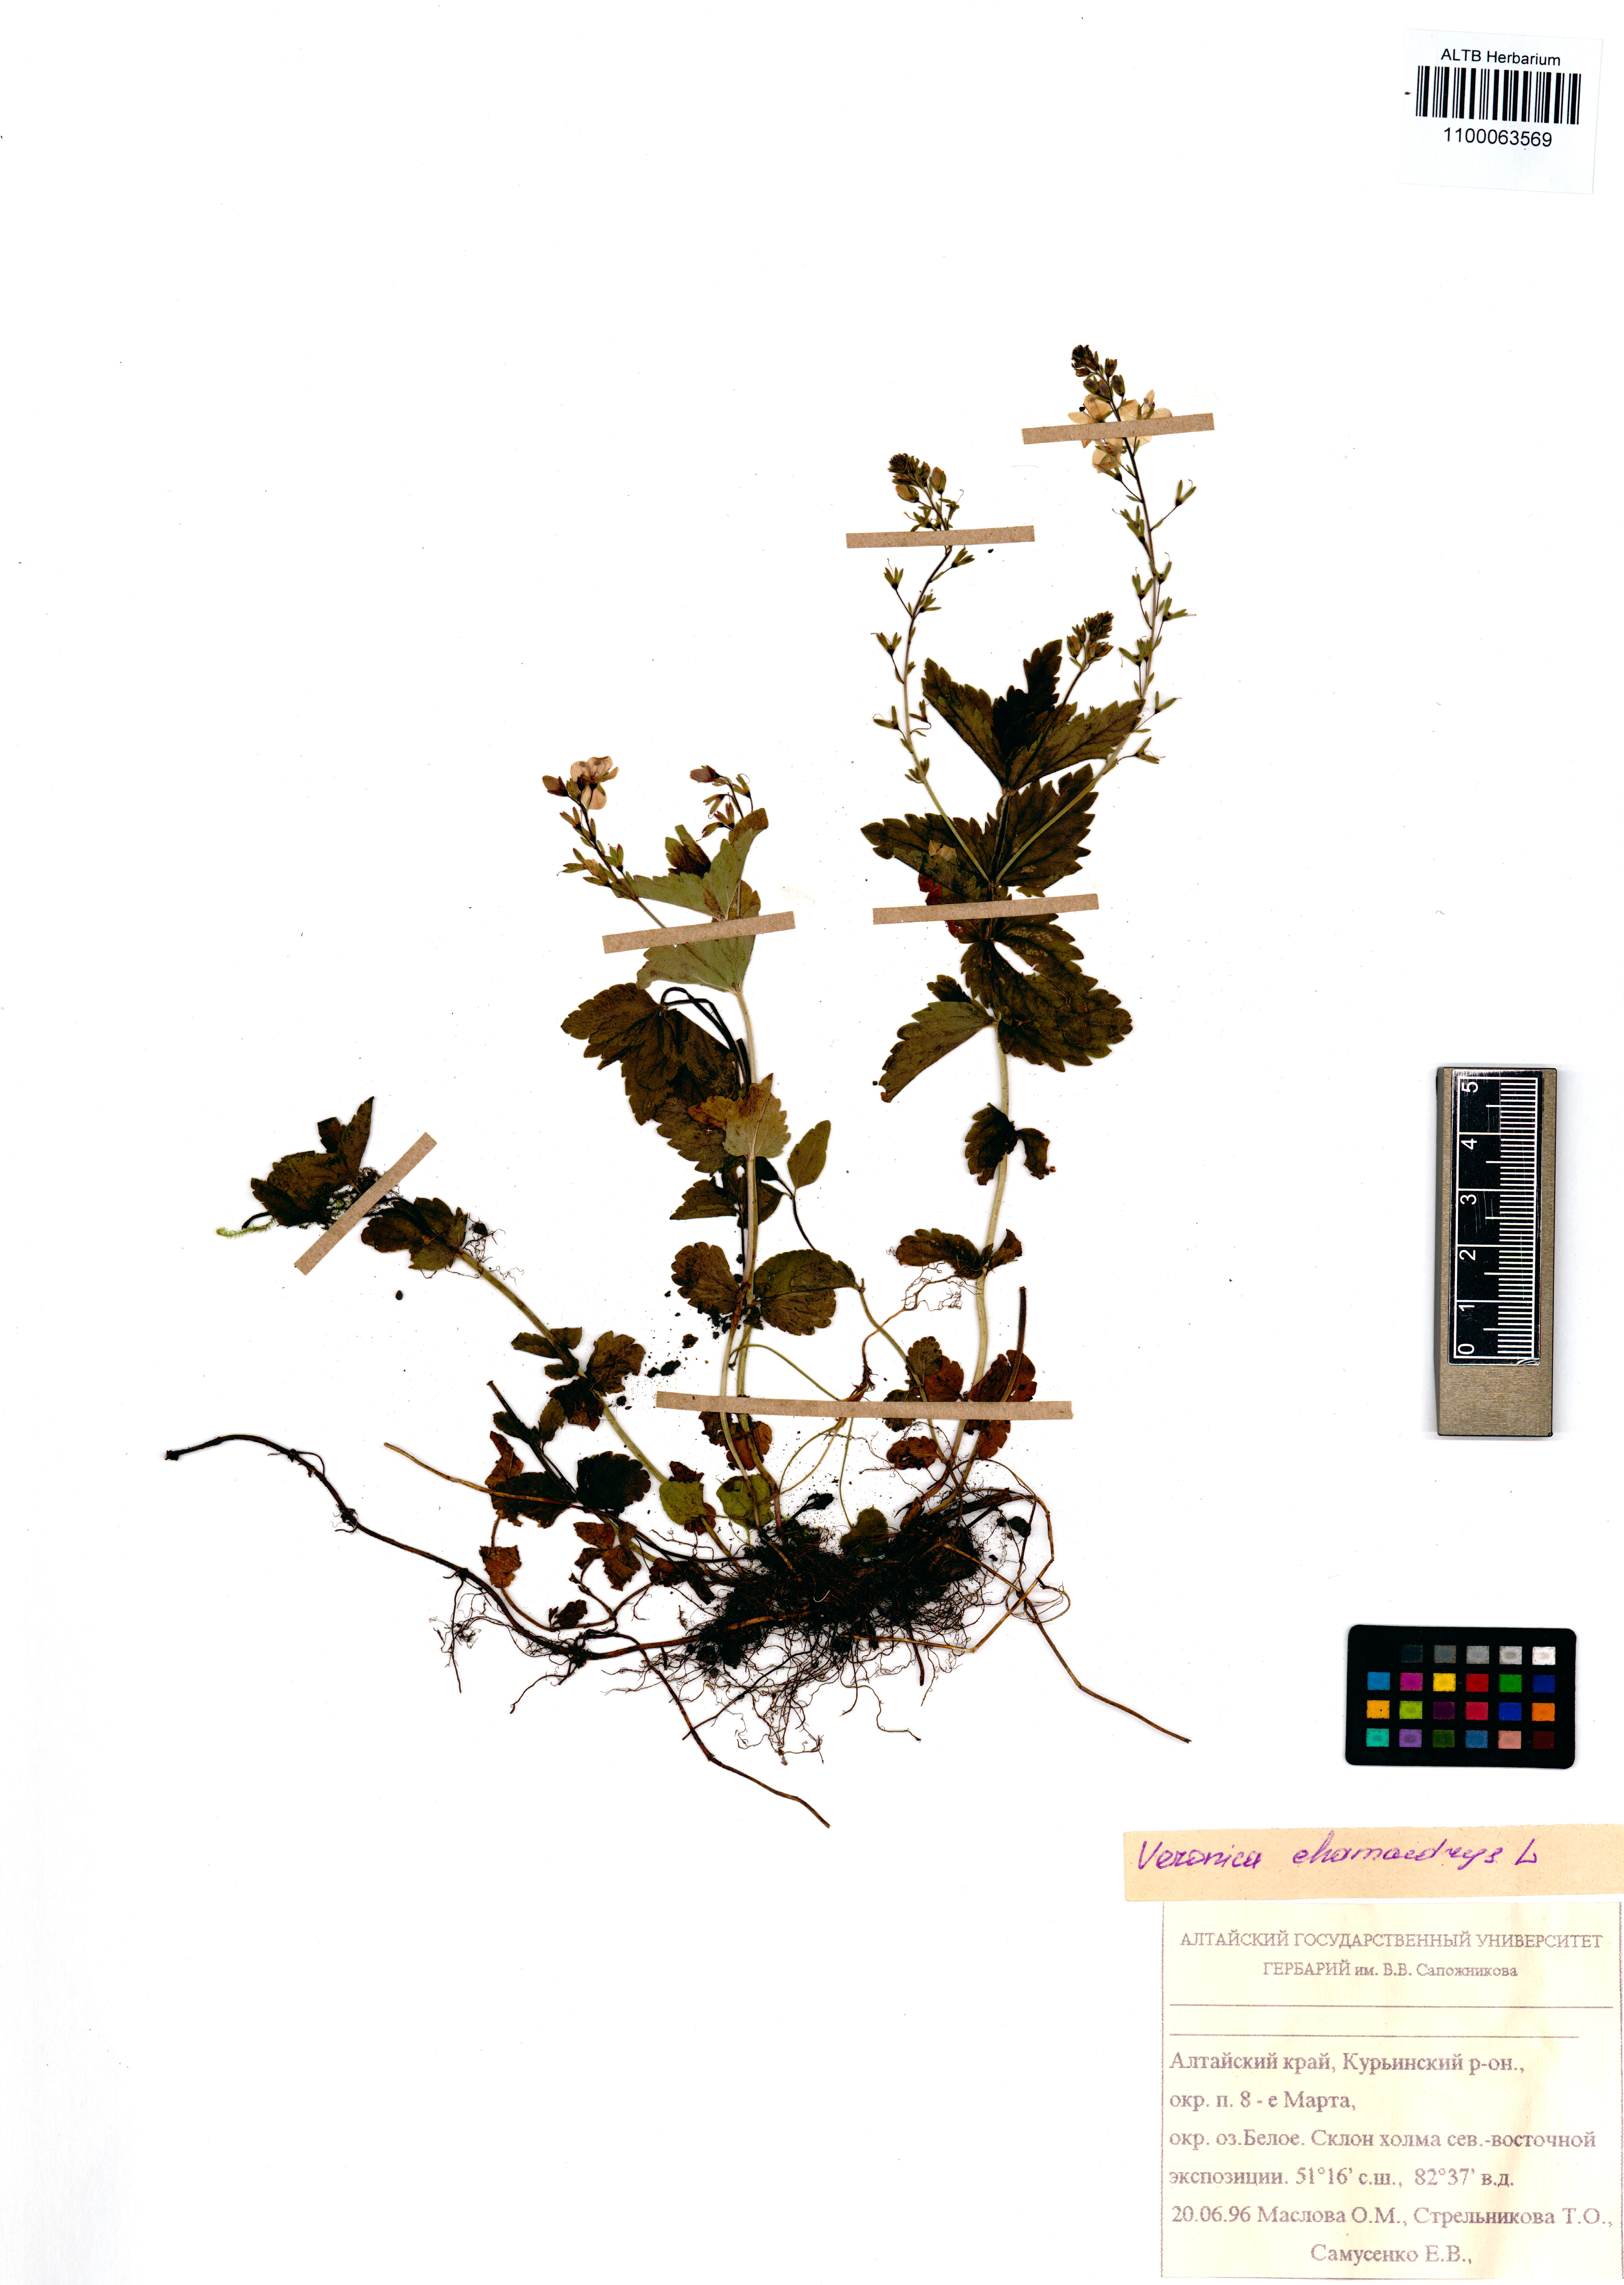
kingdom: Plantae
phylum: Tracheophyta
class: Magnoliopsida
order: Lamiales
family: Plantaginaceae
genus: Veronica
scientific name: Veronica chamaedrys
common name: Germander speedwell
